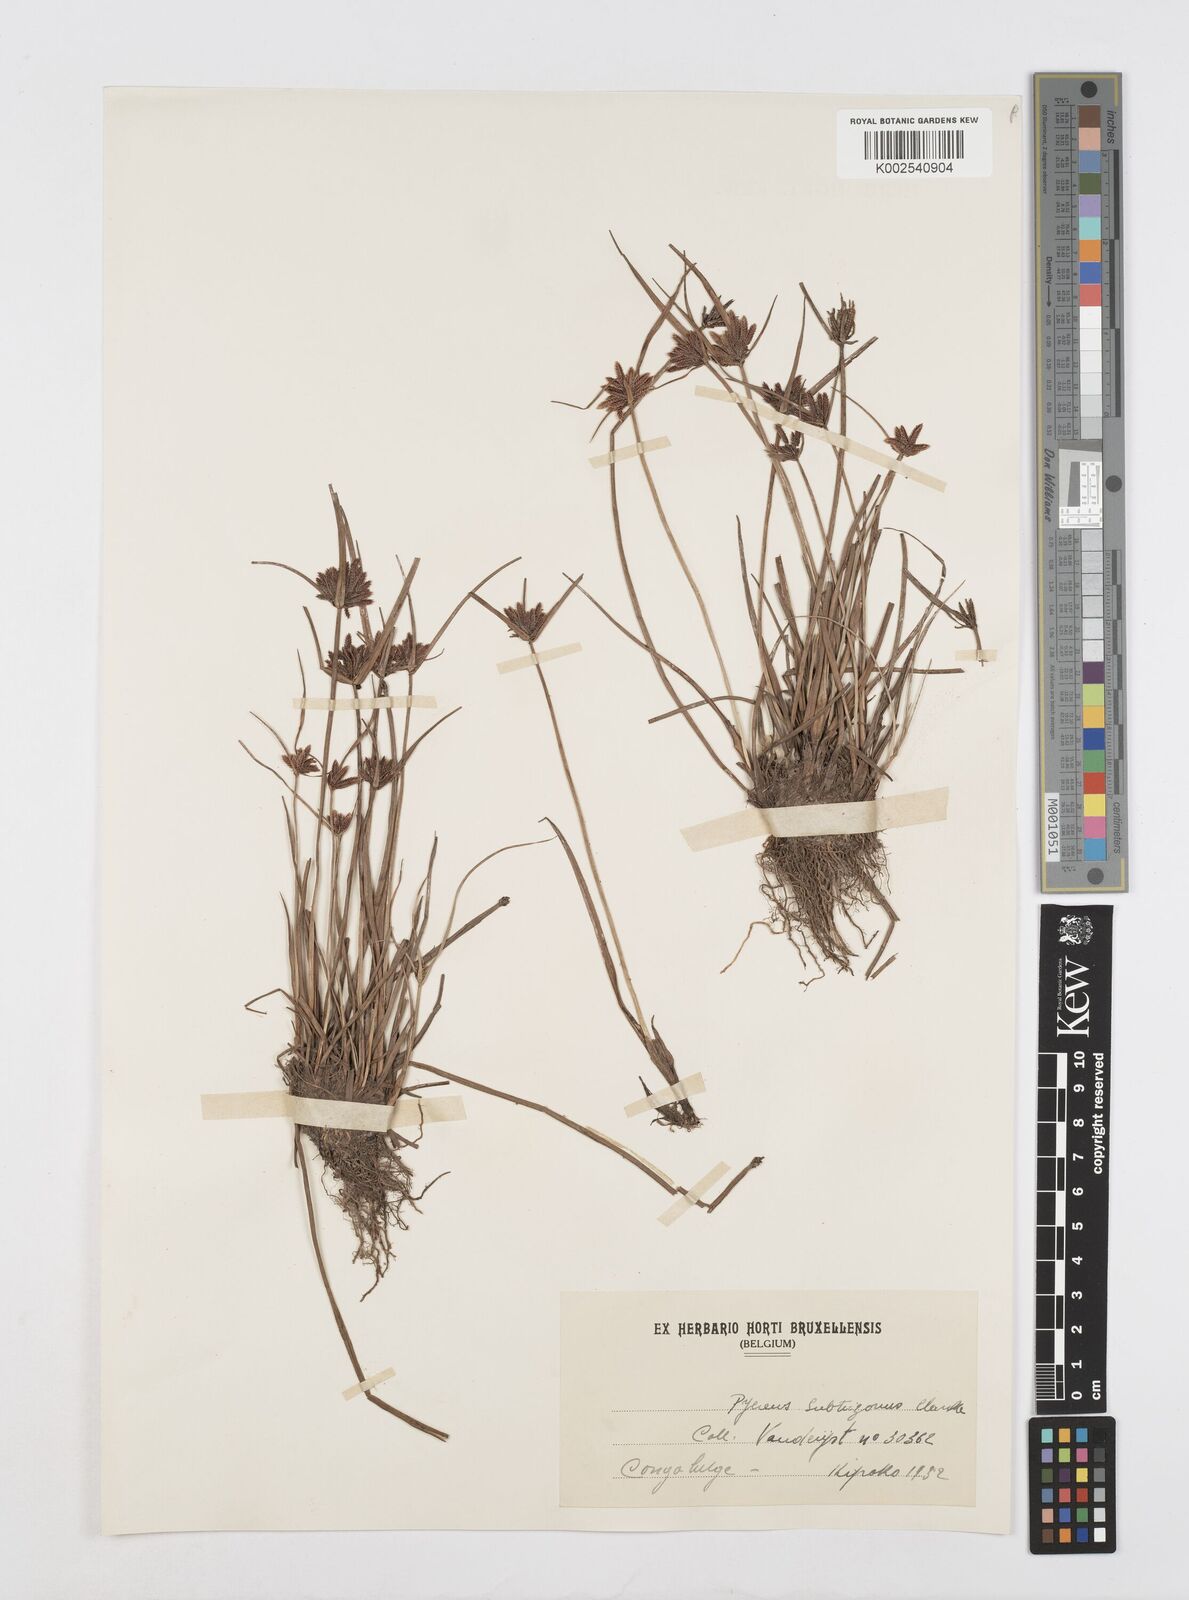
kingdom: Plantae
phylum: Tracheophyta
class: Liliopsida
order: Poales
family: Cyperaceae
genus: Cyperus
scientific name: Cyperus subtrigonus
